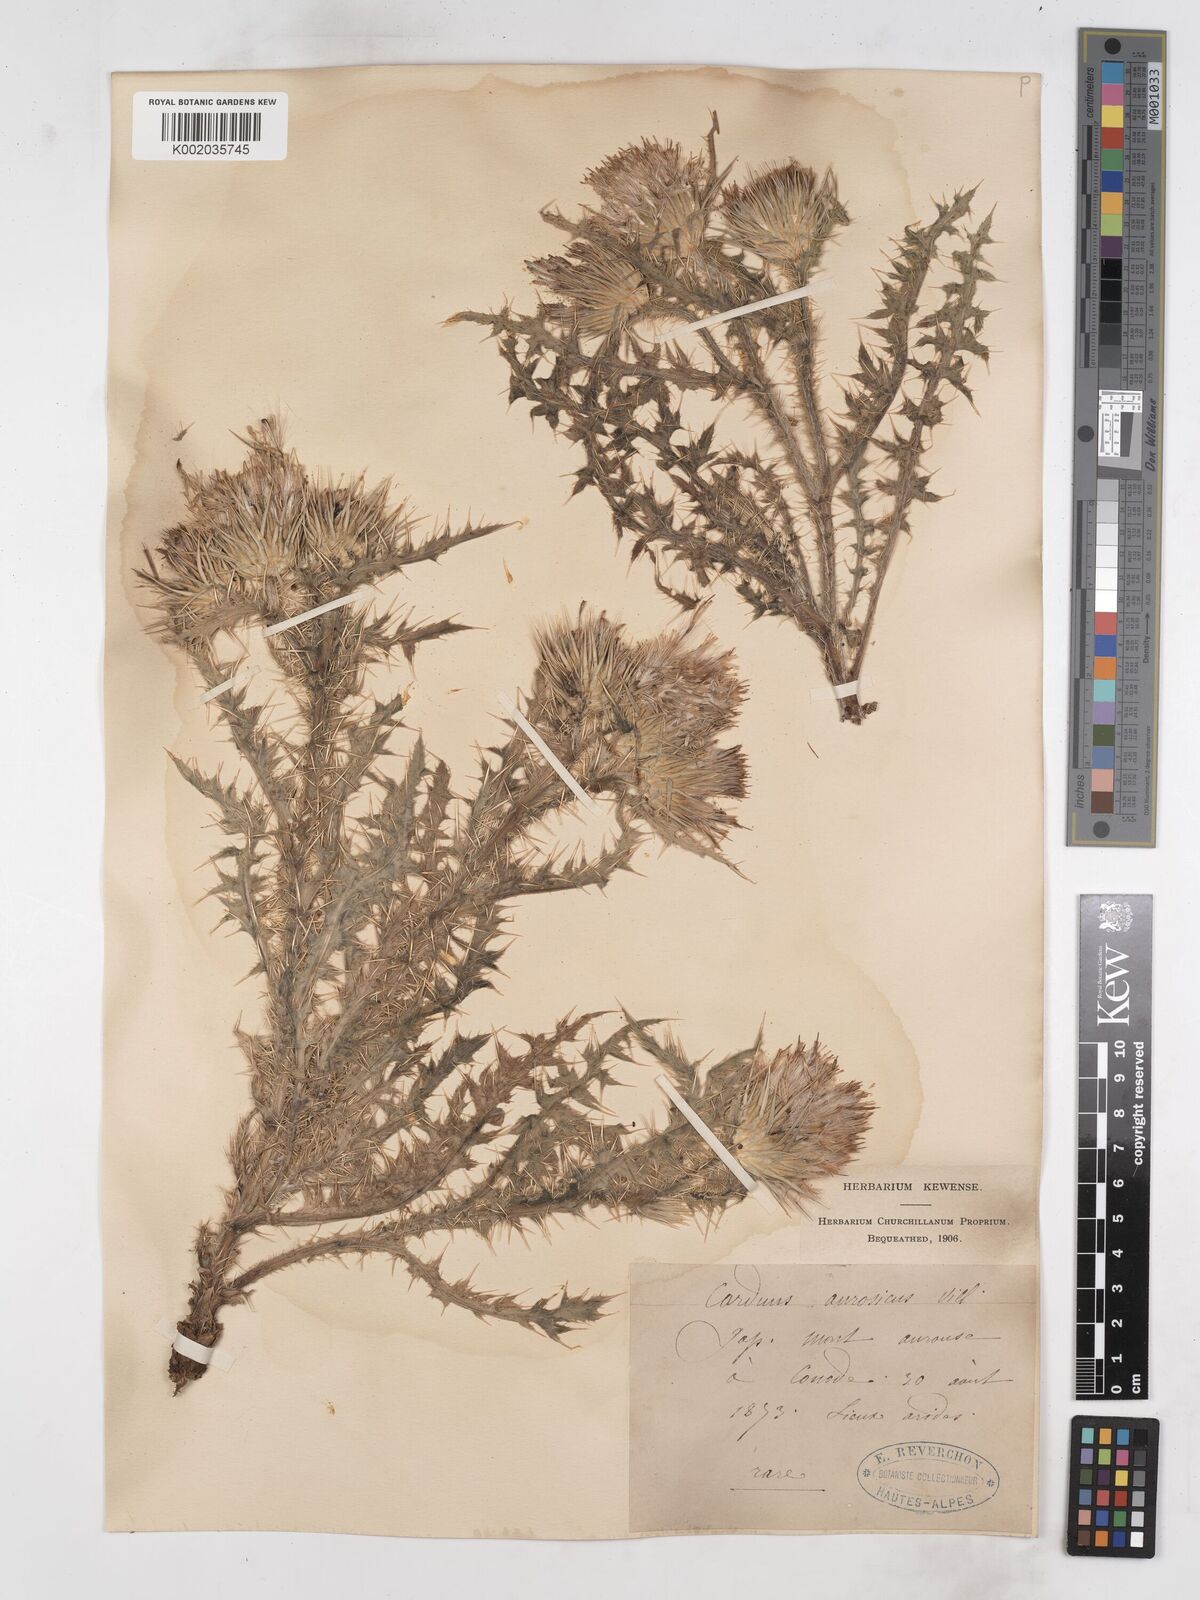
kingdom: Plantae
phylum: Tracheophyta
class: Magnoliopsida
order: Asterales
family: Asteraceae
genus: Carduus
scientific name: Carduus aurosicus
